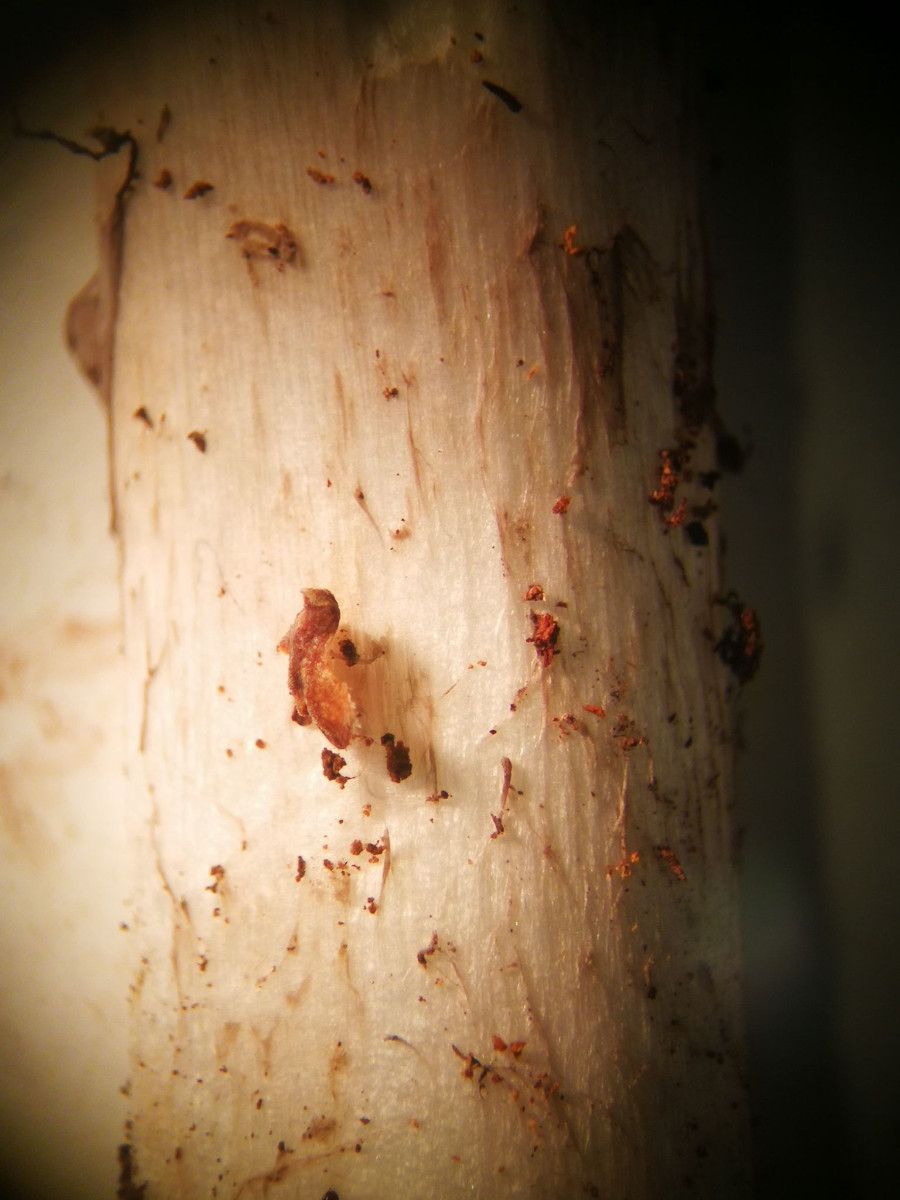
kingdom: Fungi
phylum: Basidiomycota
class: Agaricomycetes
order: Agaricales
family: Amanitaceae
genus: Amanita
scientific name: Amanita porphyria
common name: porfyr-fluesvamp
